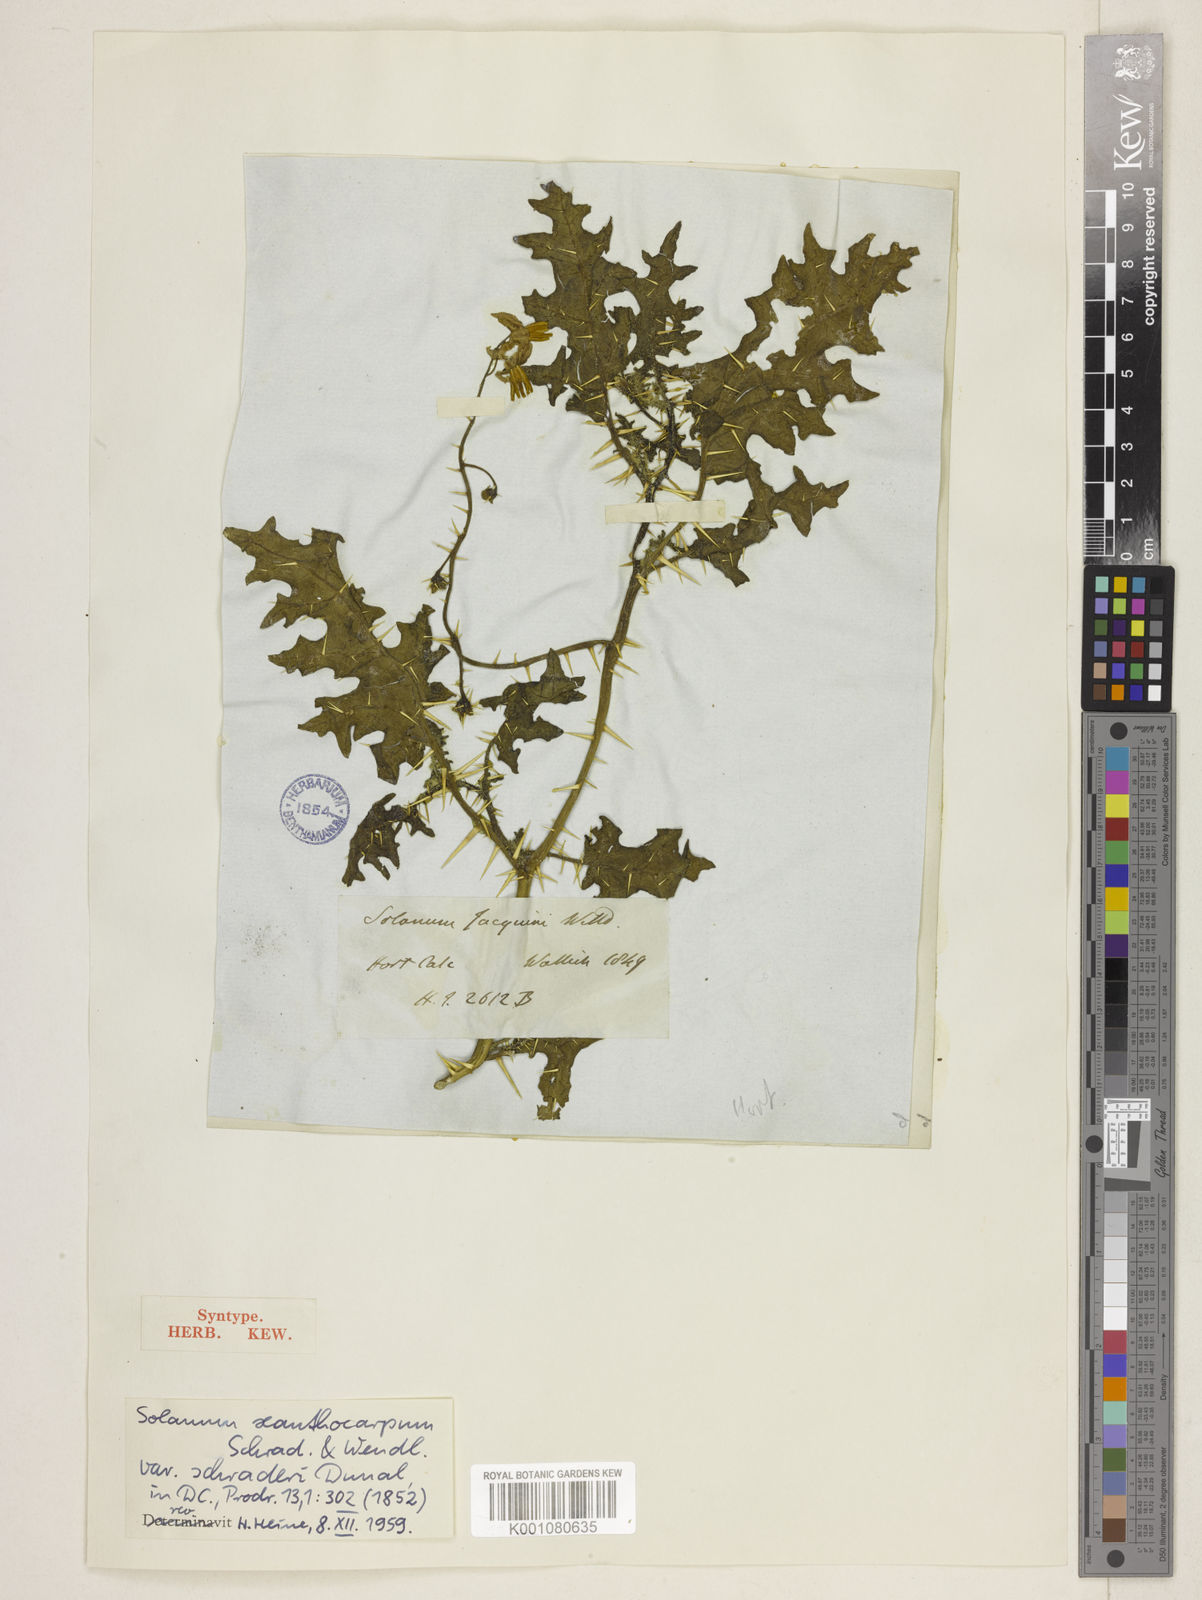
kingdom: Plantae
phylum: Tracheophyta
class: Magnoliopsida
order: Solanales
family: Solanaceae
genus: Solanum
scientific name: Solanum virginianum
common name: Surattense nightshade
